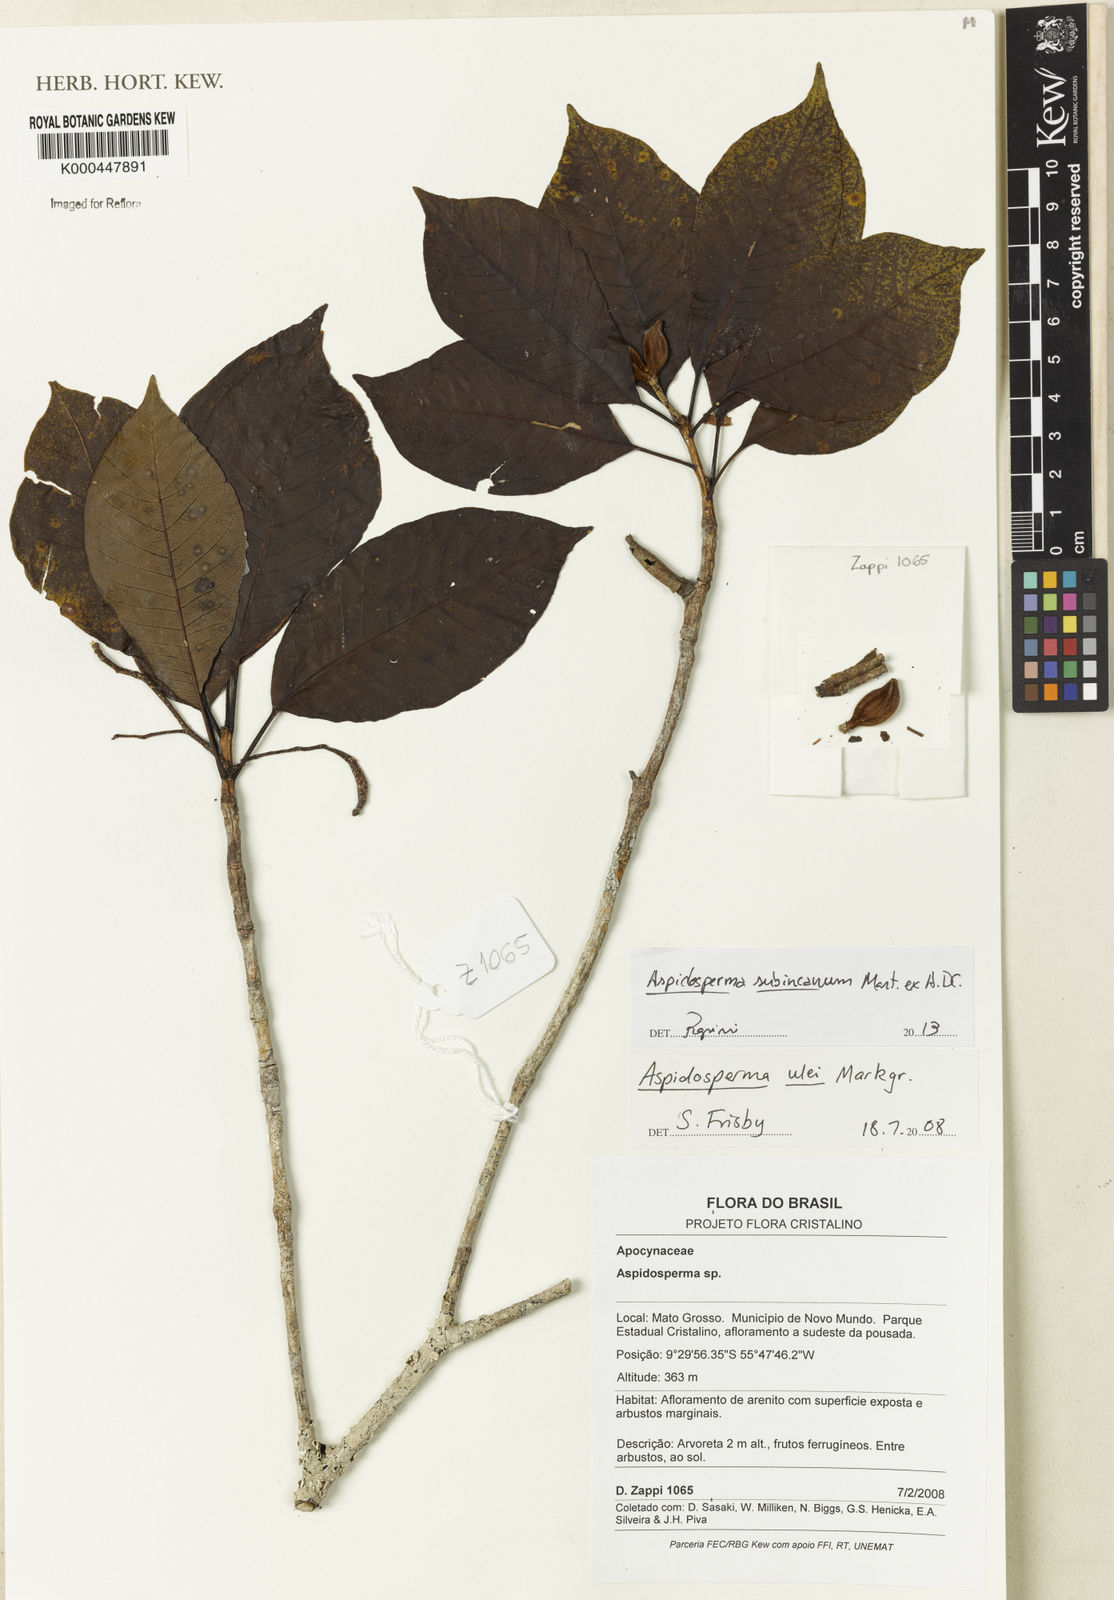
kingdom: Plantae
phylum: Tracheophyta
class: Magnoliopsida
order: Gentianales
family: Apocynaceae
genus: Aspidosperma
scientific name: Aspidosperma ulei
